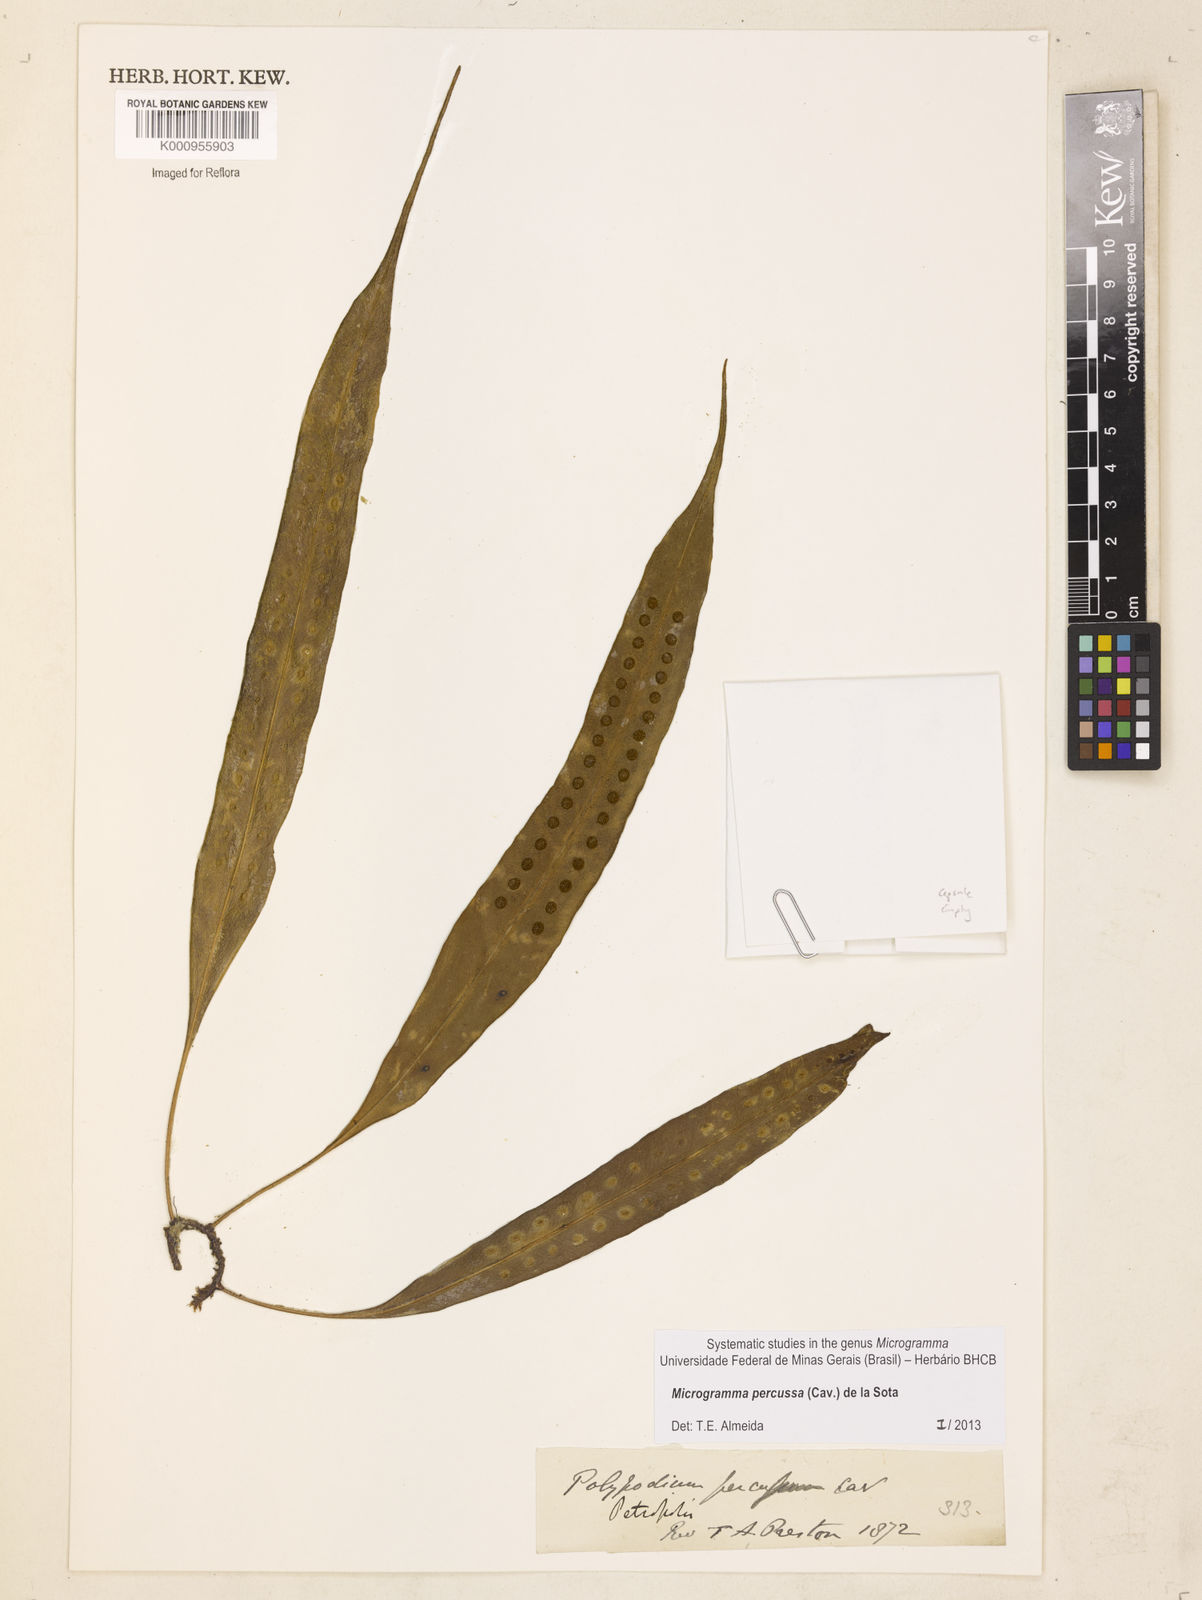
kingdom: Plantae
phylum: Tracheophyta
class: Polypodiopsida
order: Polypodiales
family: Polypodiaceae
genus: Microgramma
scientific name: Microgramma percussa
